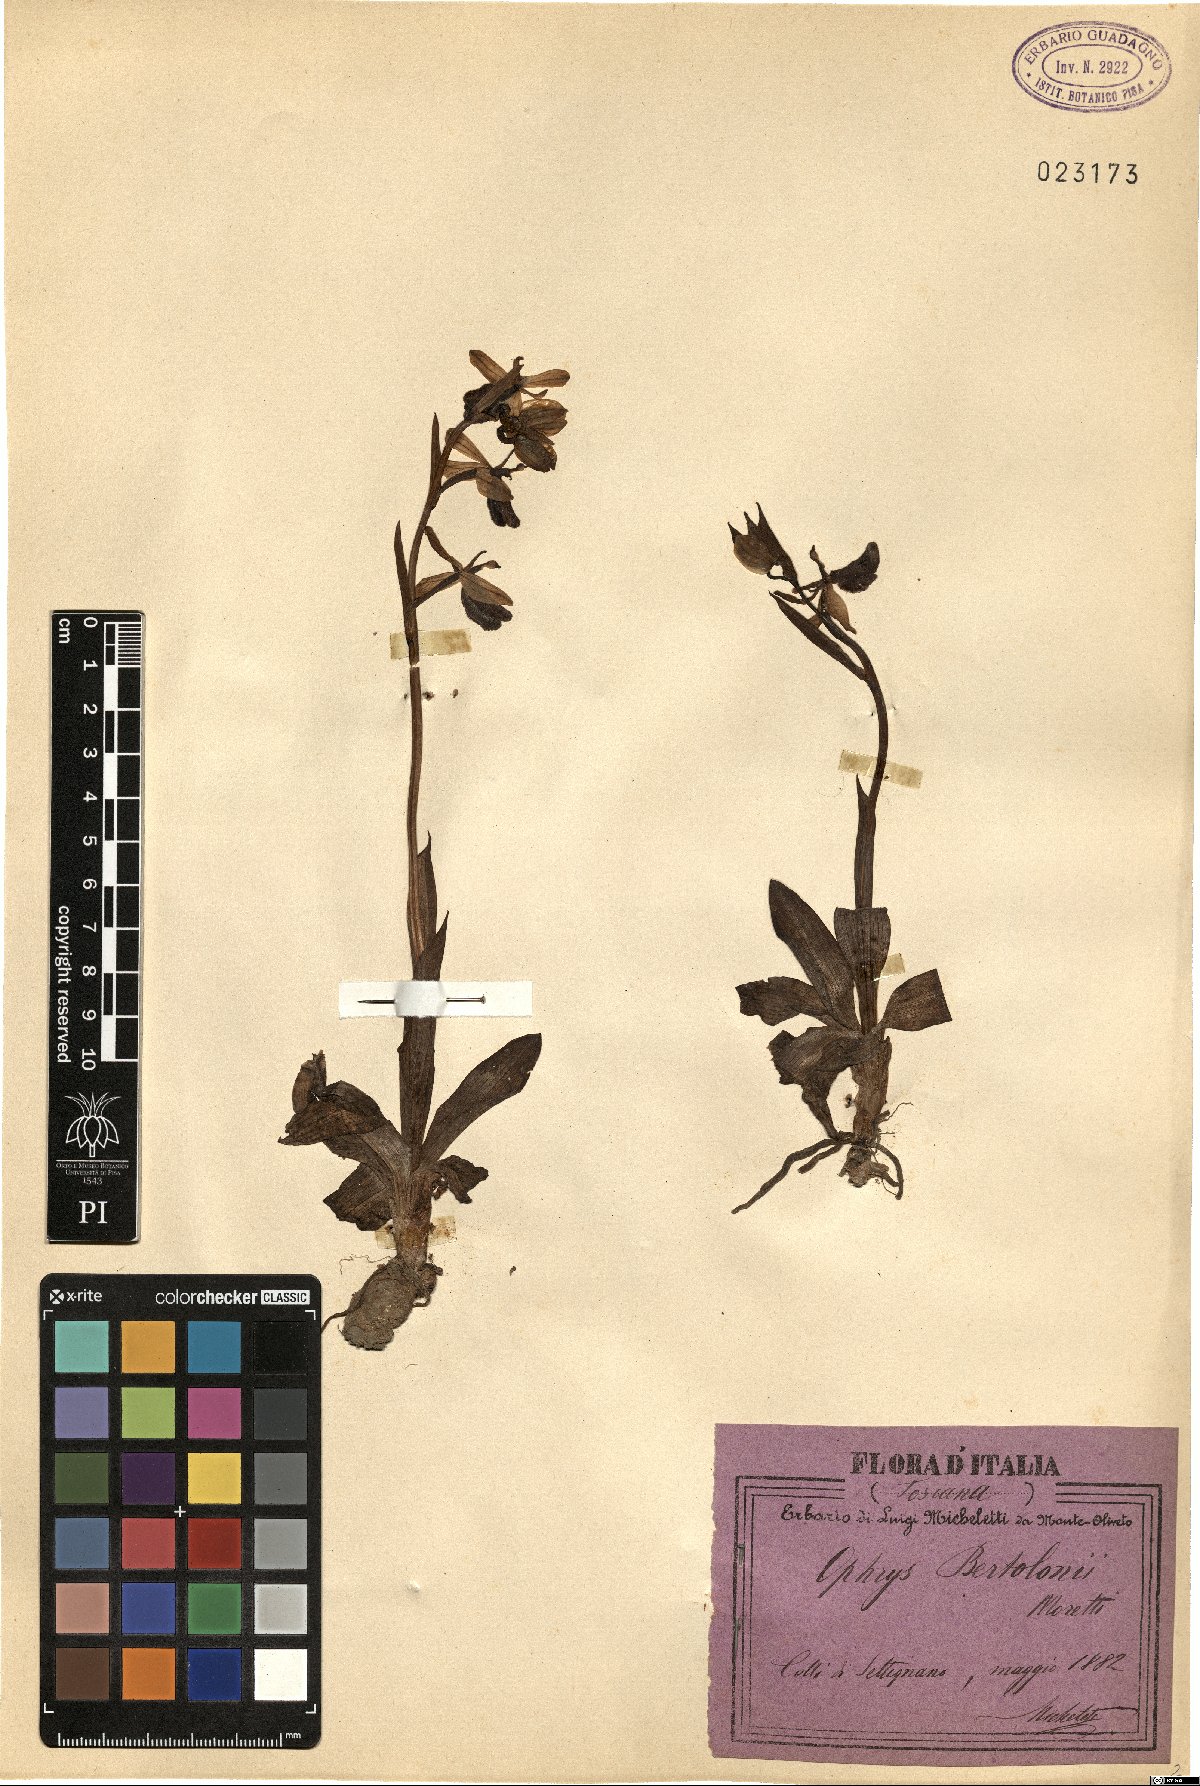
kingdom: Plantae
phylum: Tracheophyta
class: Liliopsida
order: Asparagales
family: Orchidaceae
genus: Ophrys
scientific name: Ophrys bertolonii
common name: Bertoloni's bee orchid
